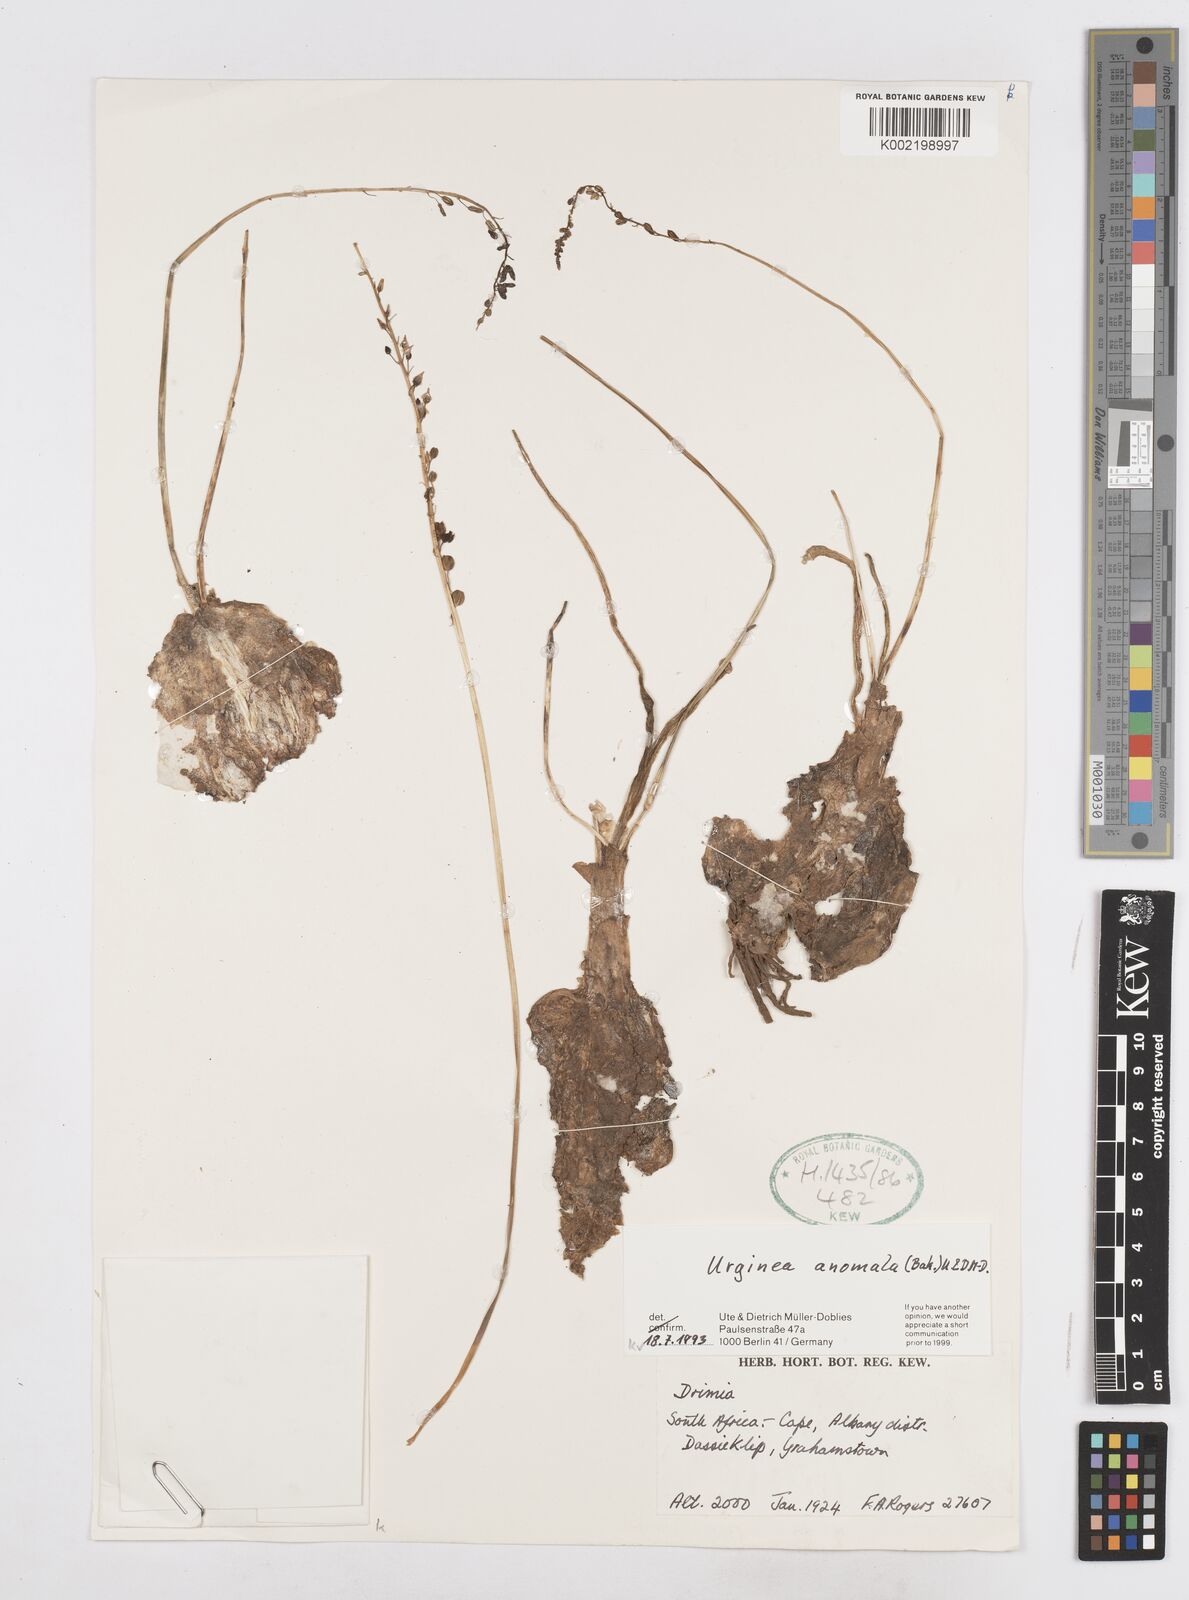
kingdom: Plantae
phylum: Tracheophyta
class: Liliopsida
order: Asparagales
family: Asparagaceae
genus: Drimia
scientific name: Drimia anomala
